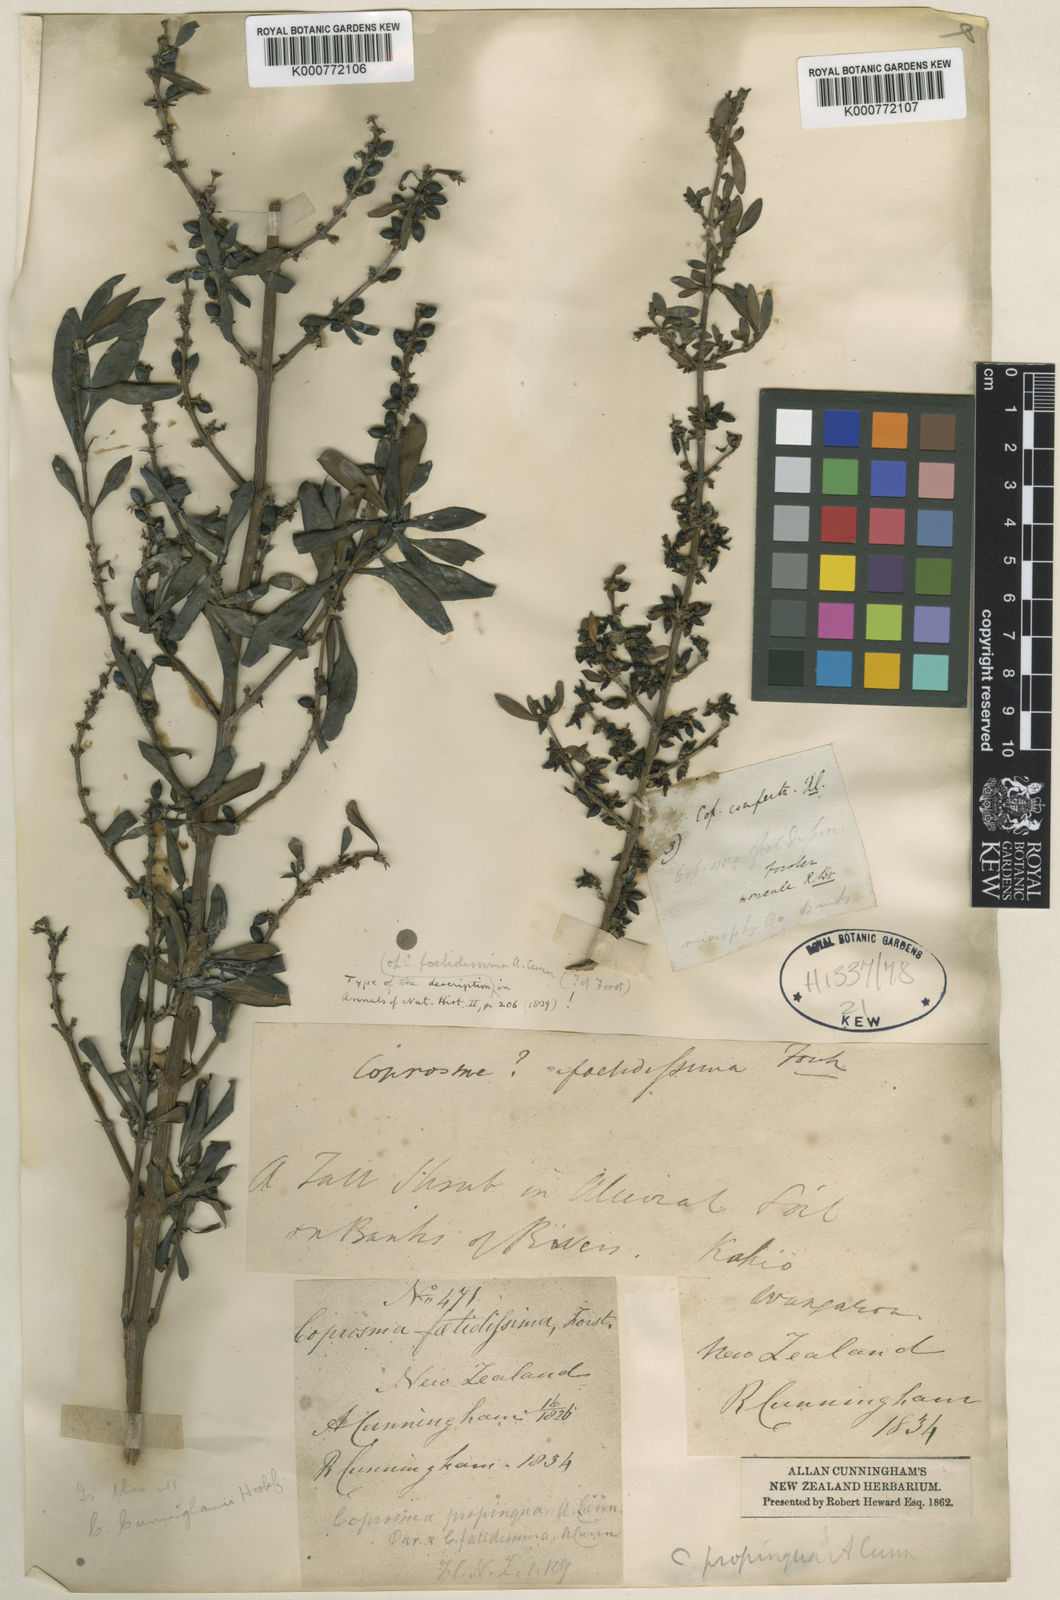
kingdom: Plantae
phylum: Tracheophyta
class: Magnoliopsida
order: Gentianales
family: Rubiaceae
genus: Coprosma
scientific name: Coprosma propinqua
